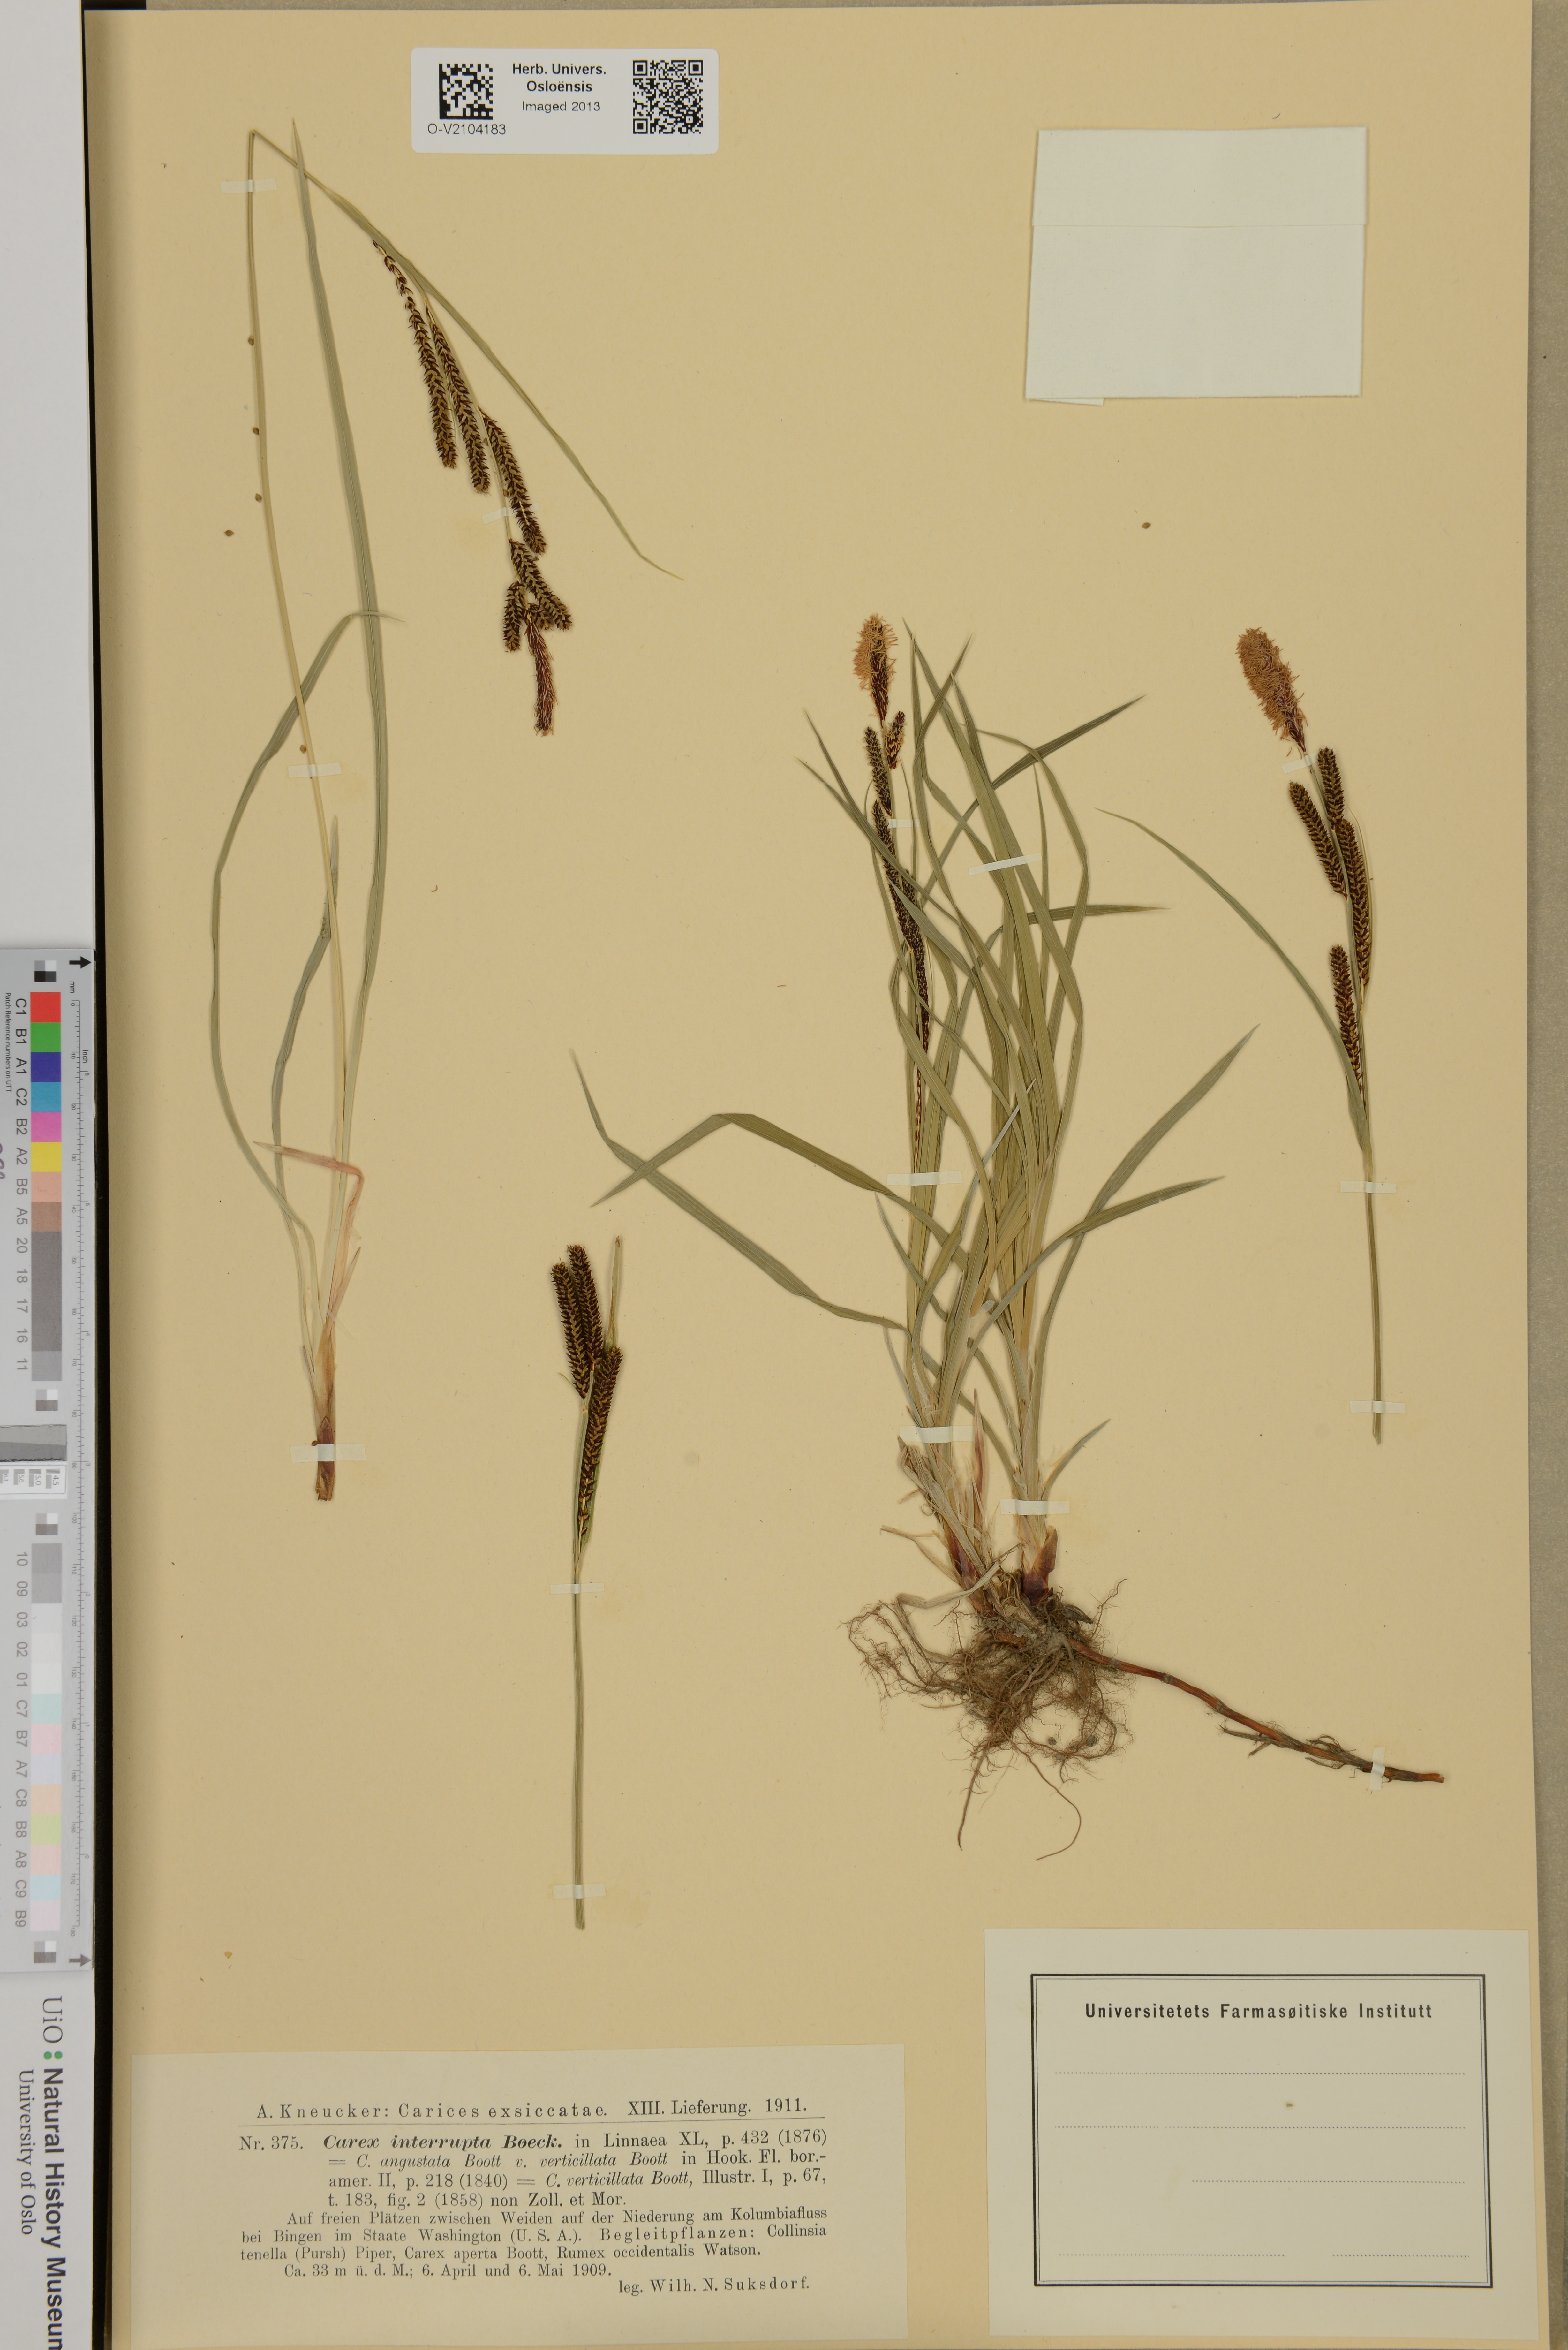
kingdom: Plantae
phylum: Tracheophyta
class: Liliopsida
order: Poales
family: Cyperaceae
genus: Carex
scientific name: Carex interrupta
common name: Green-fruited sedge
